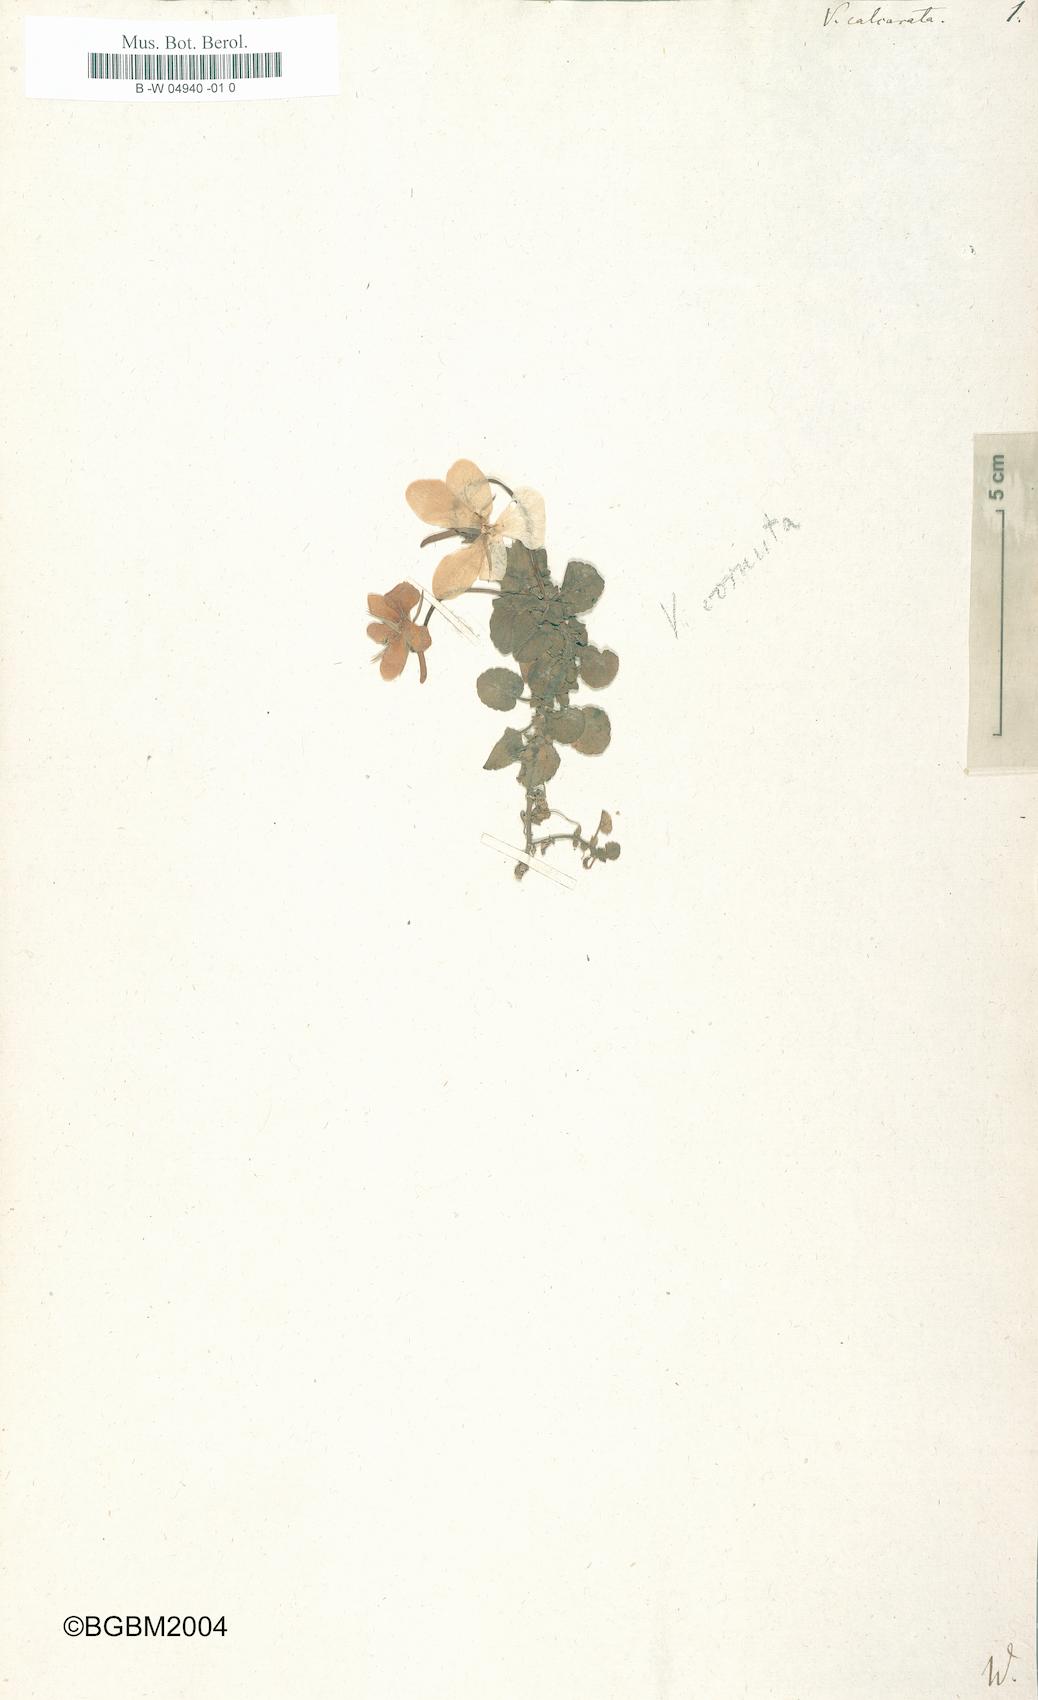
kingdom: Plantae
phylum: Tracheophyta
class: Magnoliopsida
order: Malpighiales
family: Violaceae
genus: Viola
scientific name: Viola calcarata
